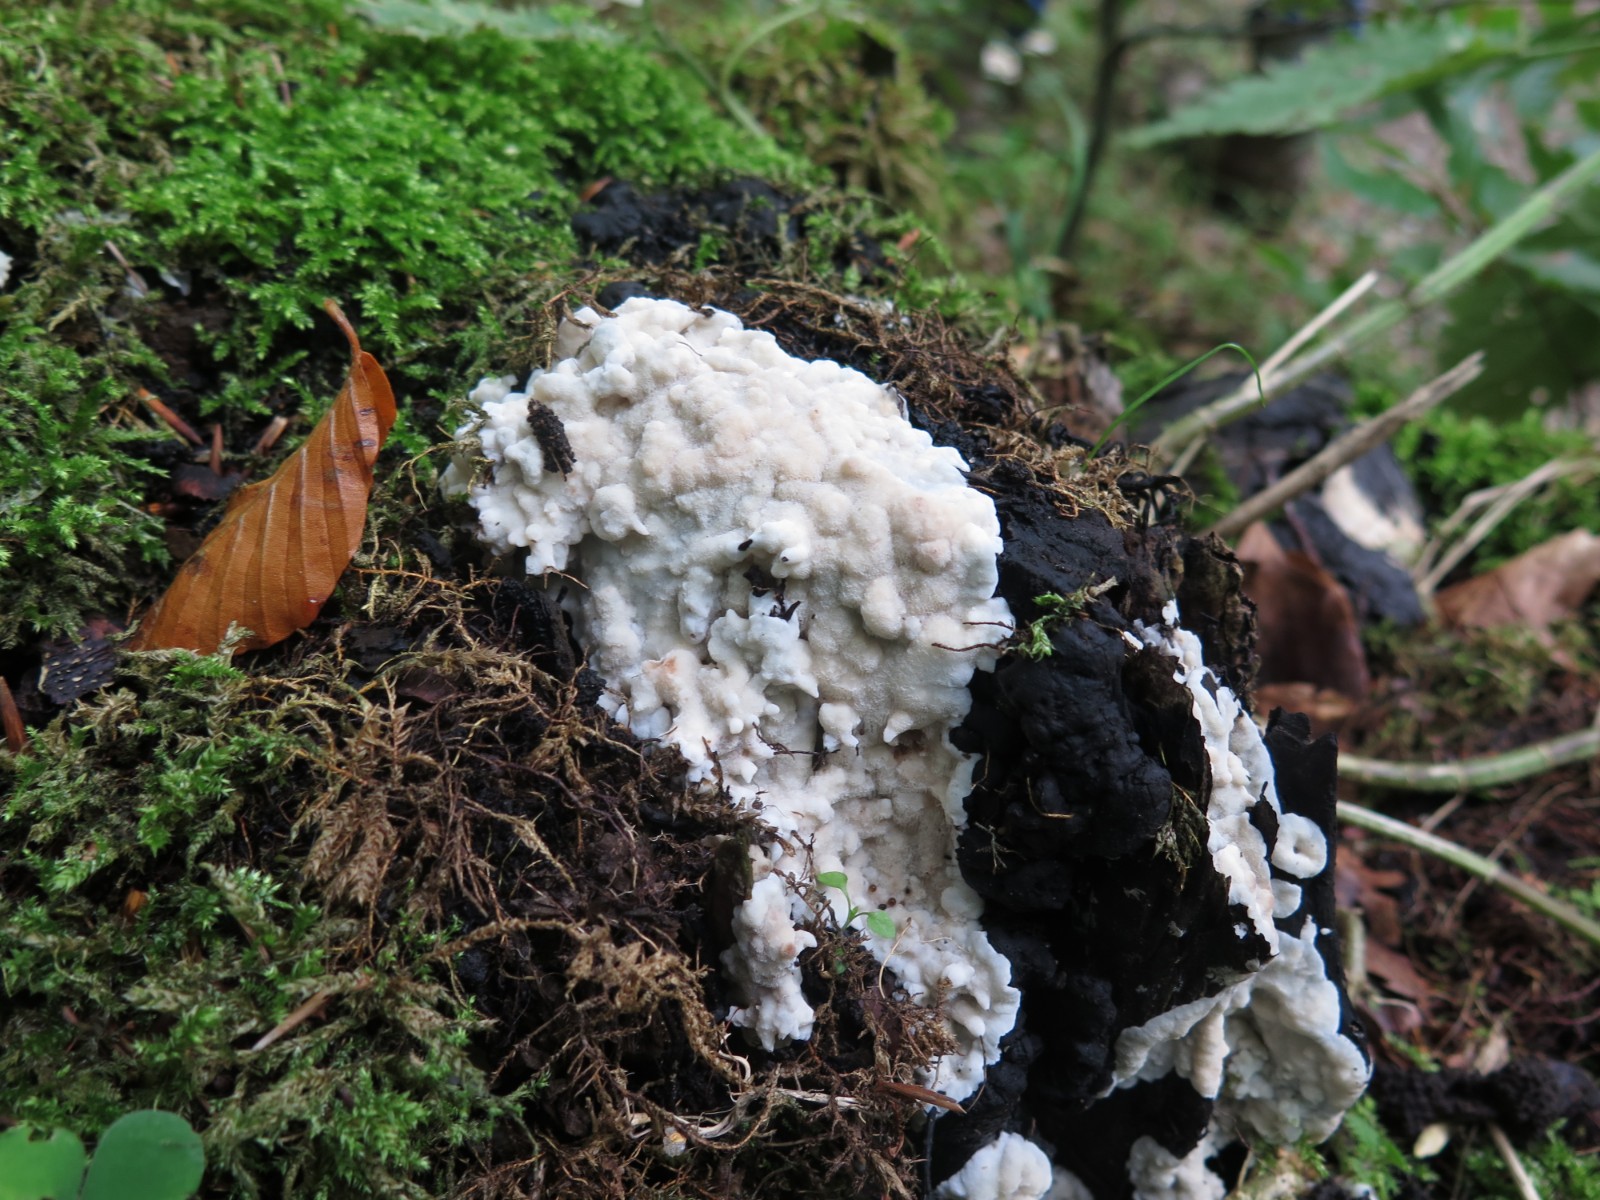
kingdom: Fungi
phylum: Basidiomycota
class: Agaricomycetes
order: Polyporales
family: Meruliaceae
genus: Physisporinus
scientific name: Physisporinus vitreus
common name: mastesvamp
